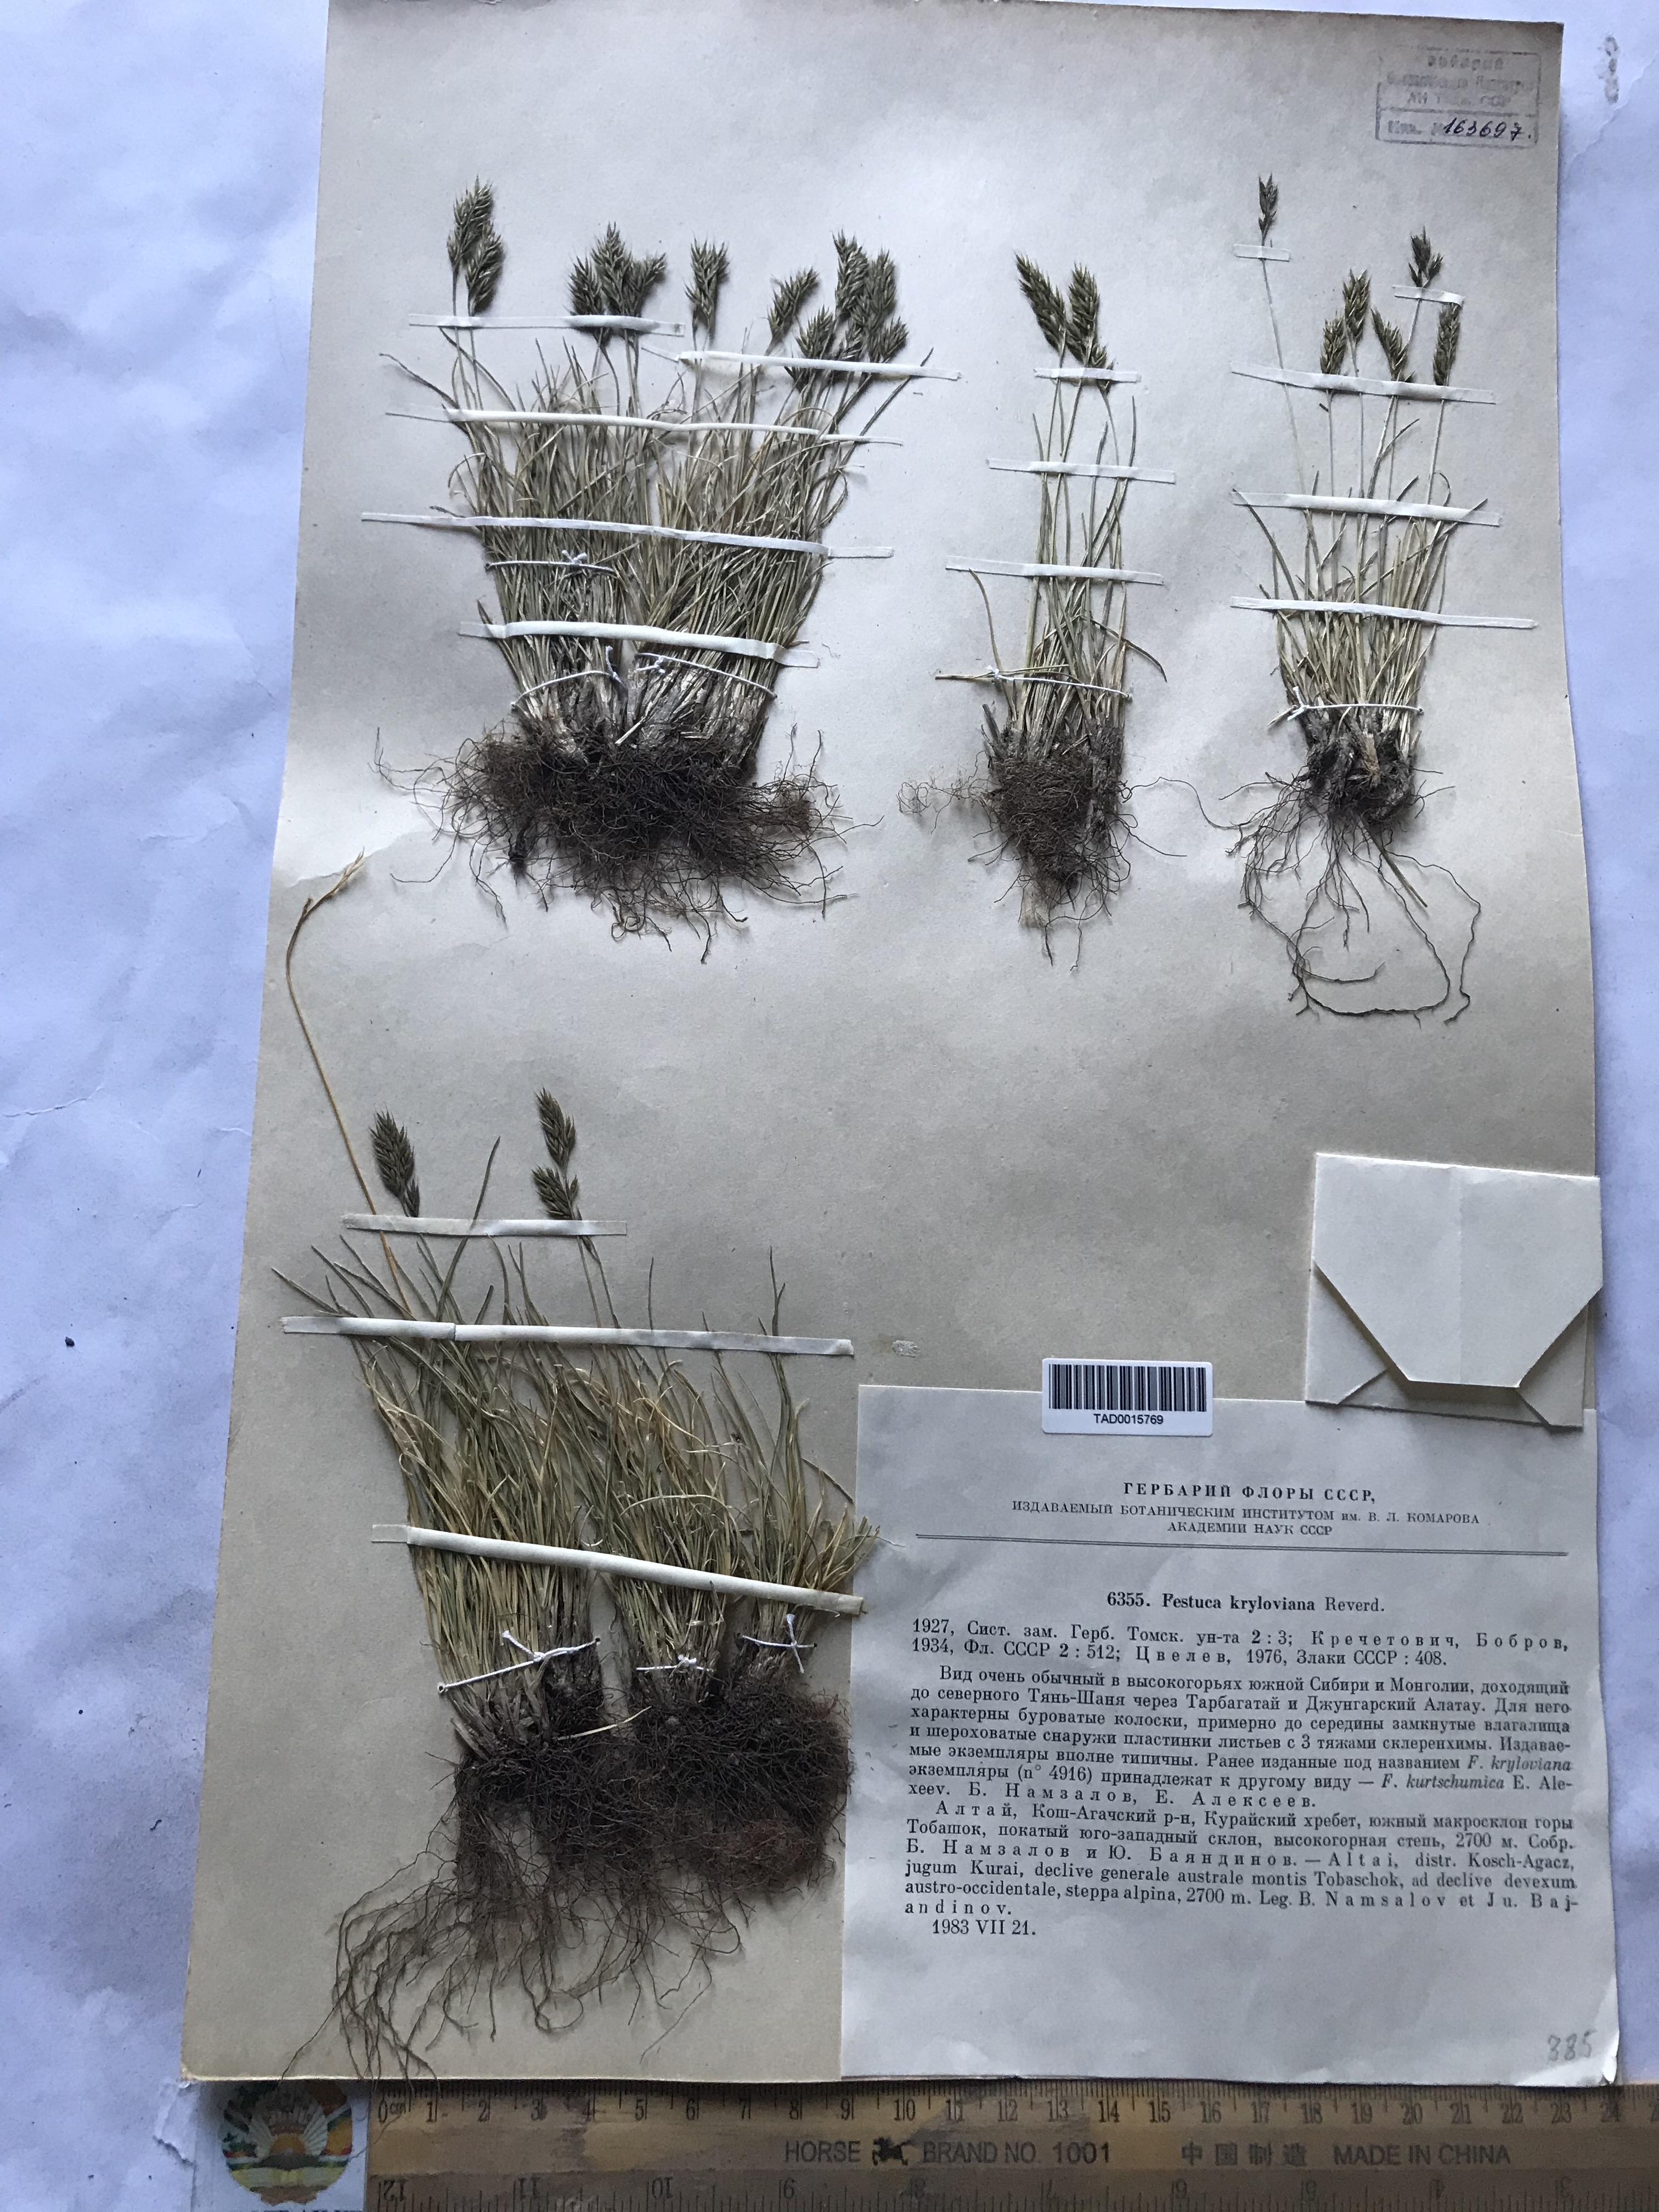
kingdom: Plantae
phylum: Tracheophyta
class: Liliopsida
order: Poales
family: Poaceae
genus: Festuca
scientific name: Festuca kryloviana
